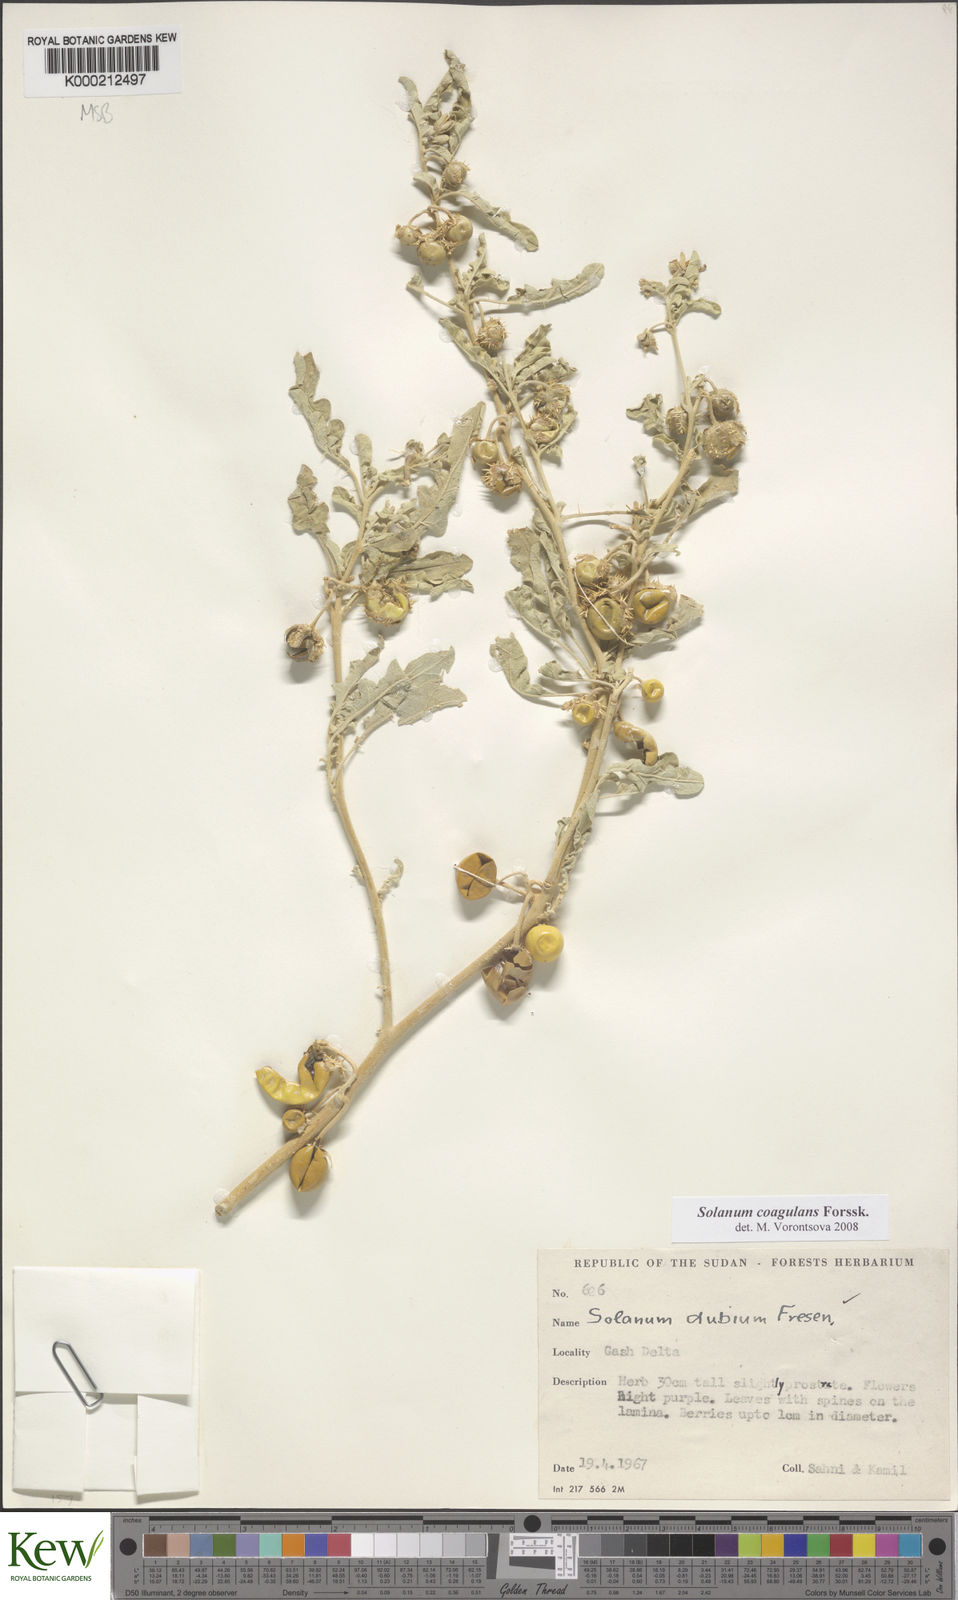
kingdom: Plantae
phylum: Tracheophyta
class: Magnoliopsida
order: Solanales
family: Solanaceae
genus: Solanum
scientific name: Solanum coagulans
